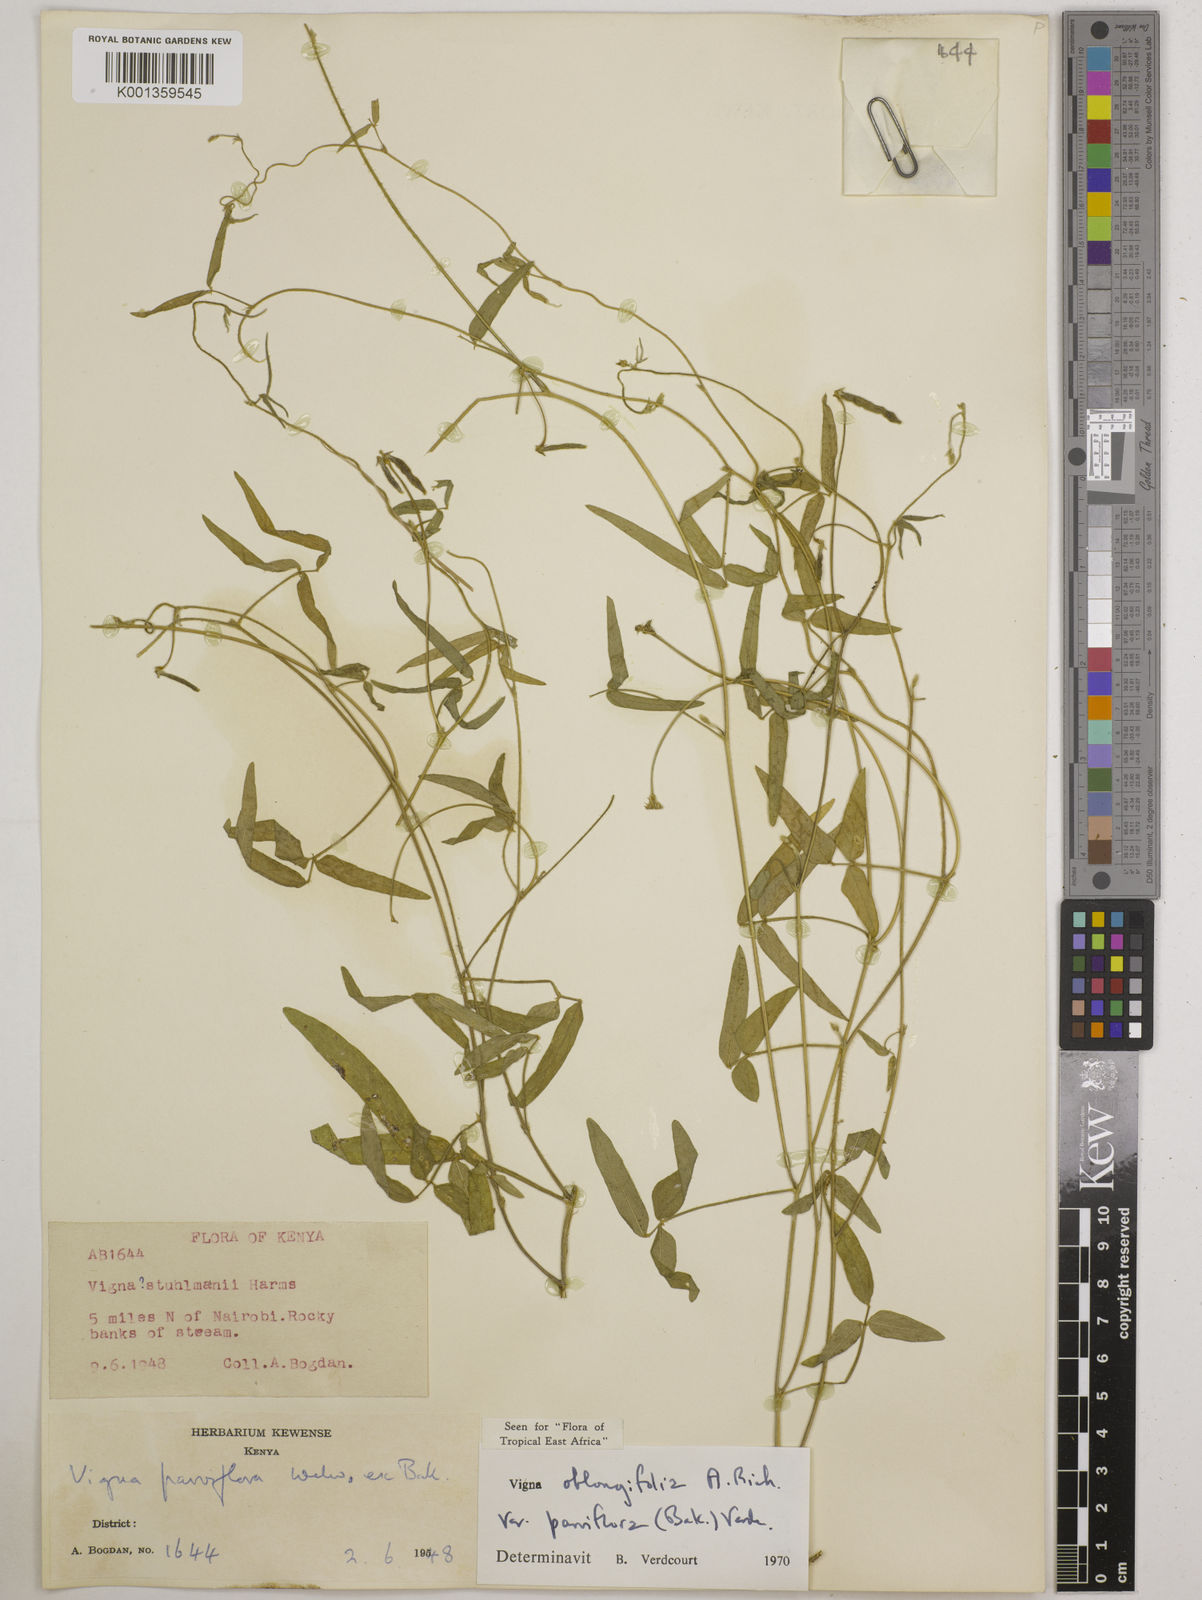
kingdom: Plantae
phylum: Tracheophyta
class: Magnoliopsida
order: Fabales
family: Fabaceae
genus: Vigna
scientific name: Vigna
